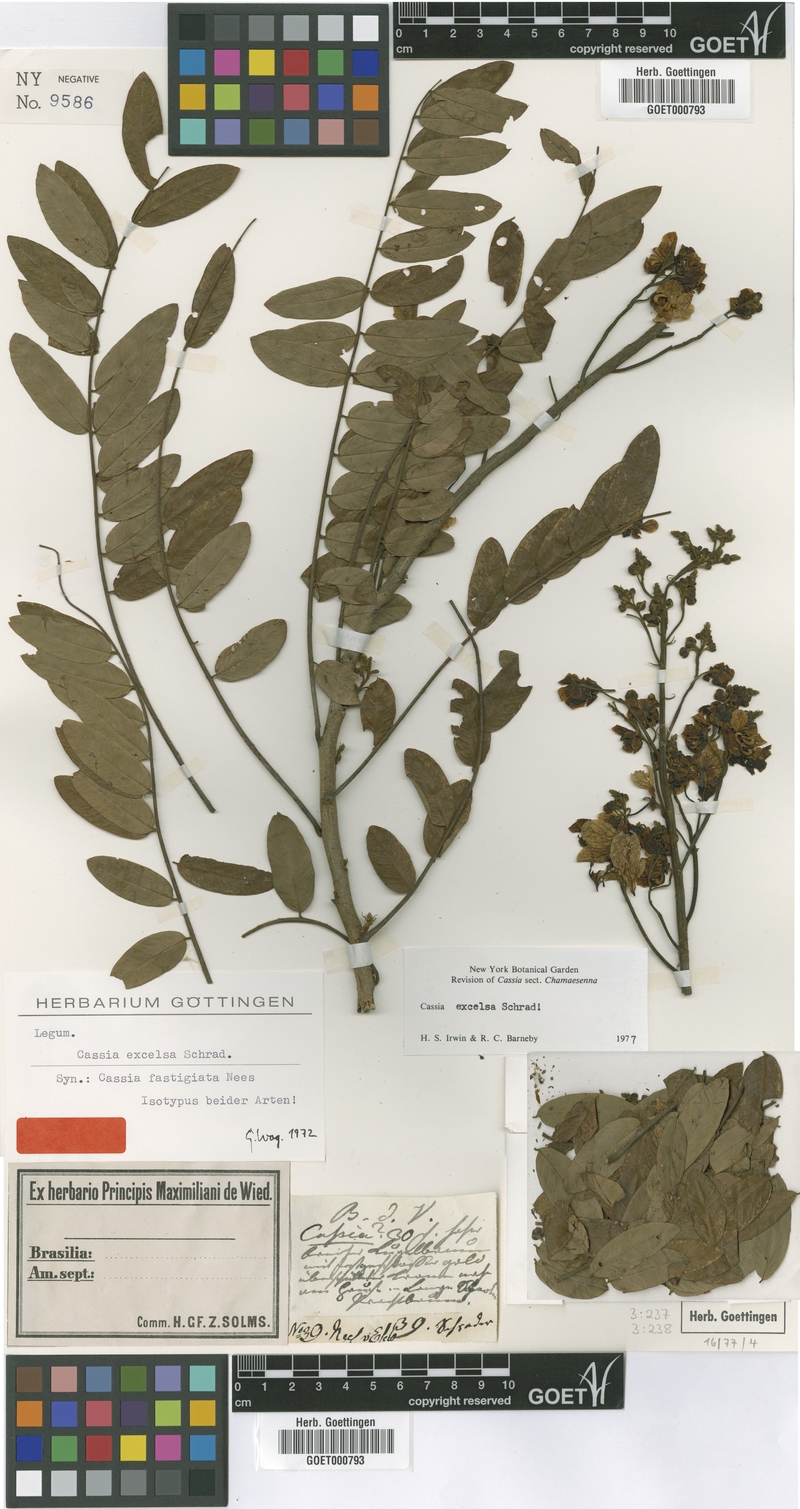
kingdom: Plantae
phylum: Tracheophyta
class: Magnoliopsida
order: Fabales
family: Fabaceae
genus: Senna
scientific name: Senna spectabilis
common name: Casia amarilla
